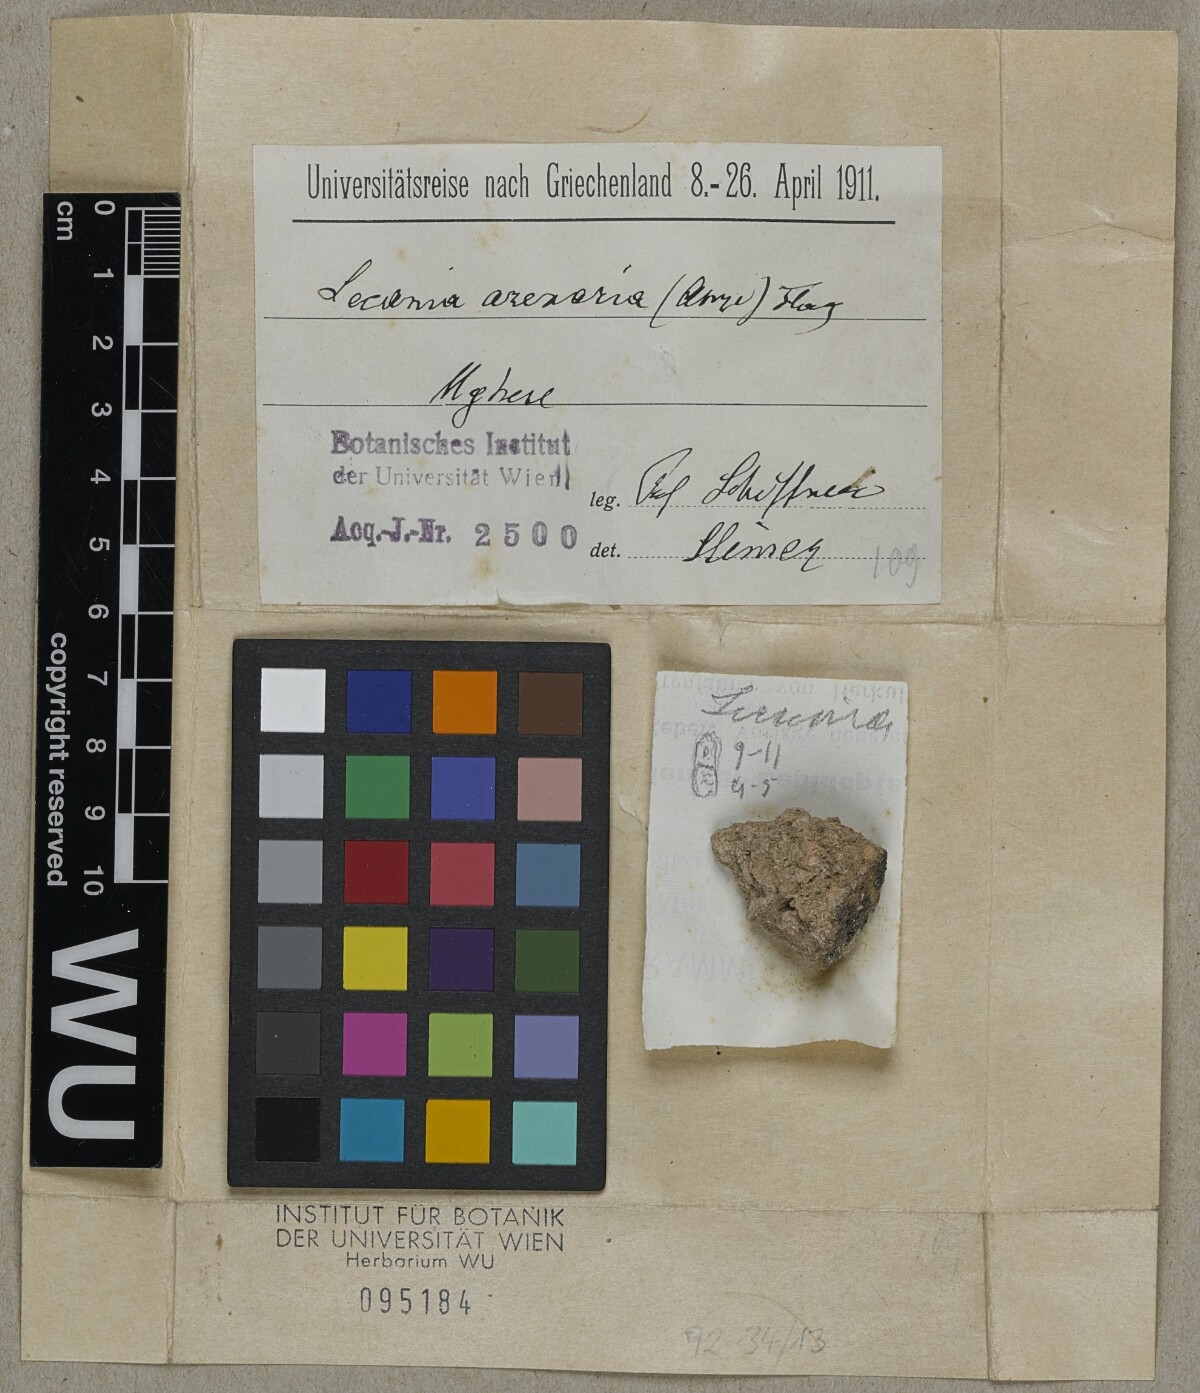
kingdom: Fungi
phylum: Ascomycota
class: Lecanoromycetes
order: Lecanorales
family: Ramalinaceae
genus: Lecania
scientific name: Lecania arenaria
